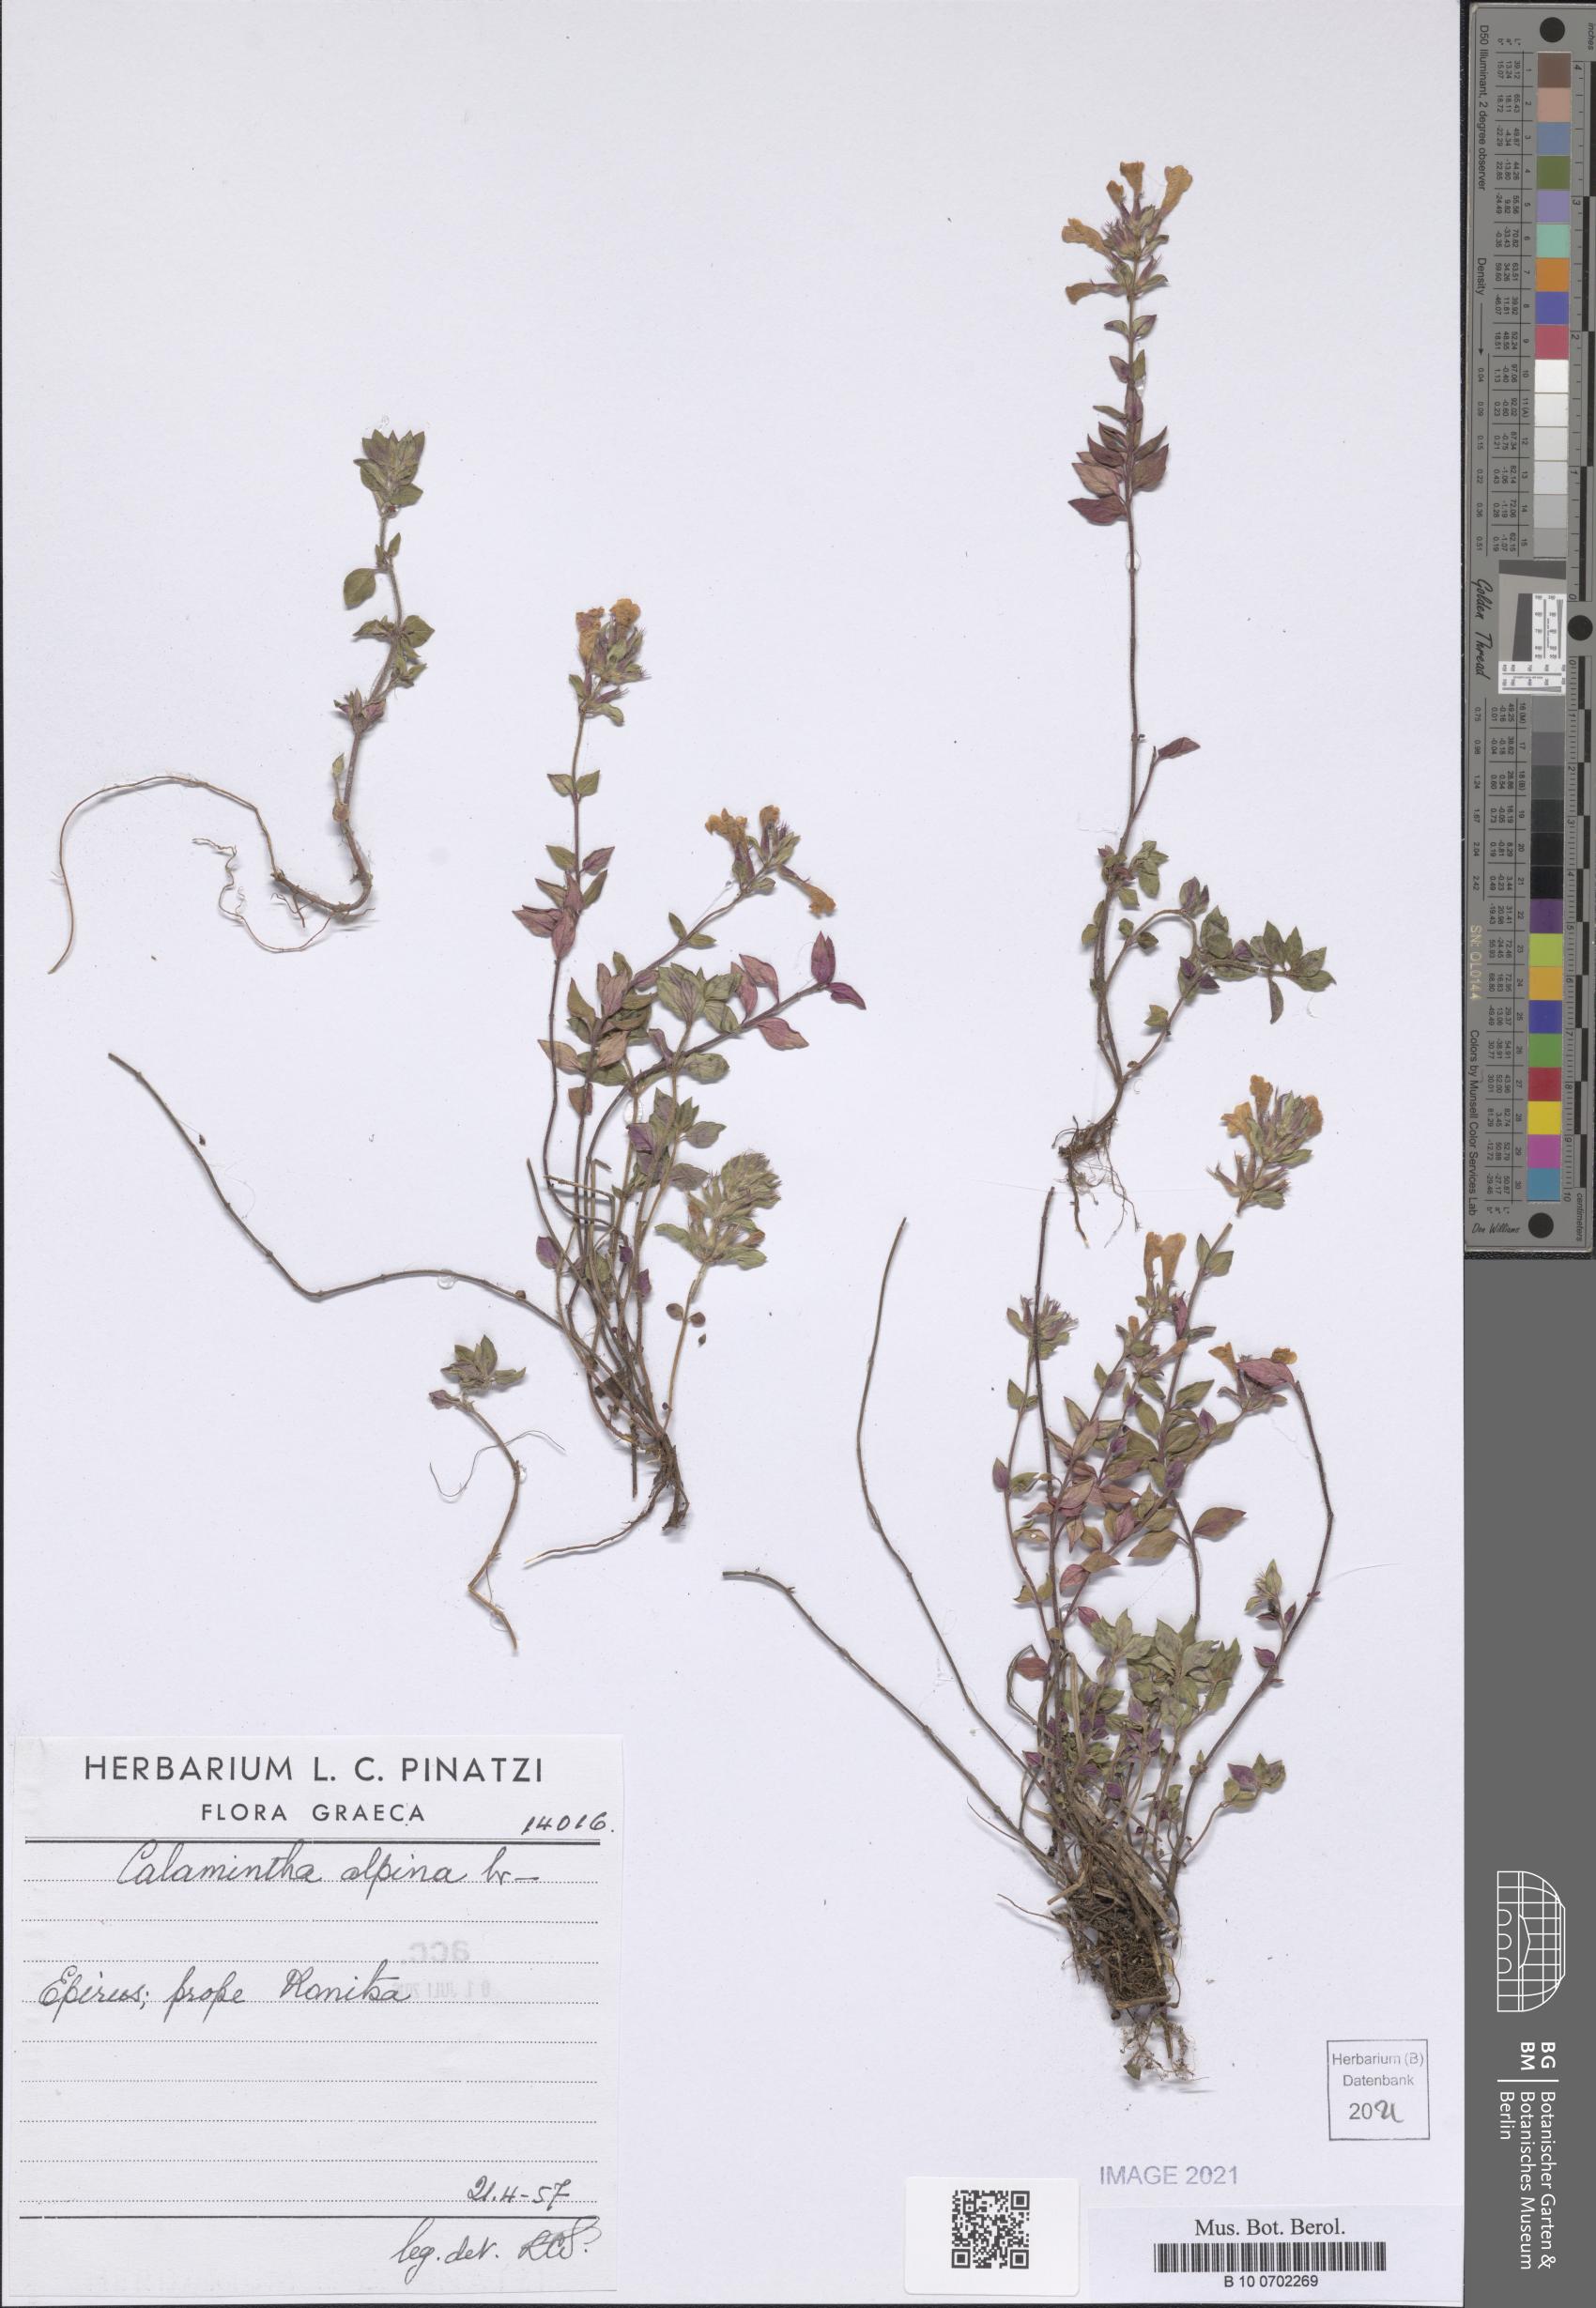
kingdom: Plantae
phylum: Tracheophyta
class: Magnoliopsida
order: Lamiales
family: Lamiaceae
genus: Clinopodium
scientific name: Clinopodium alpinum
